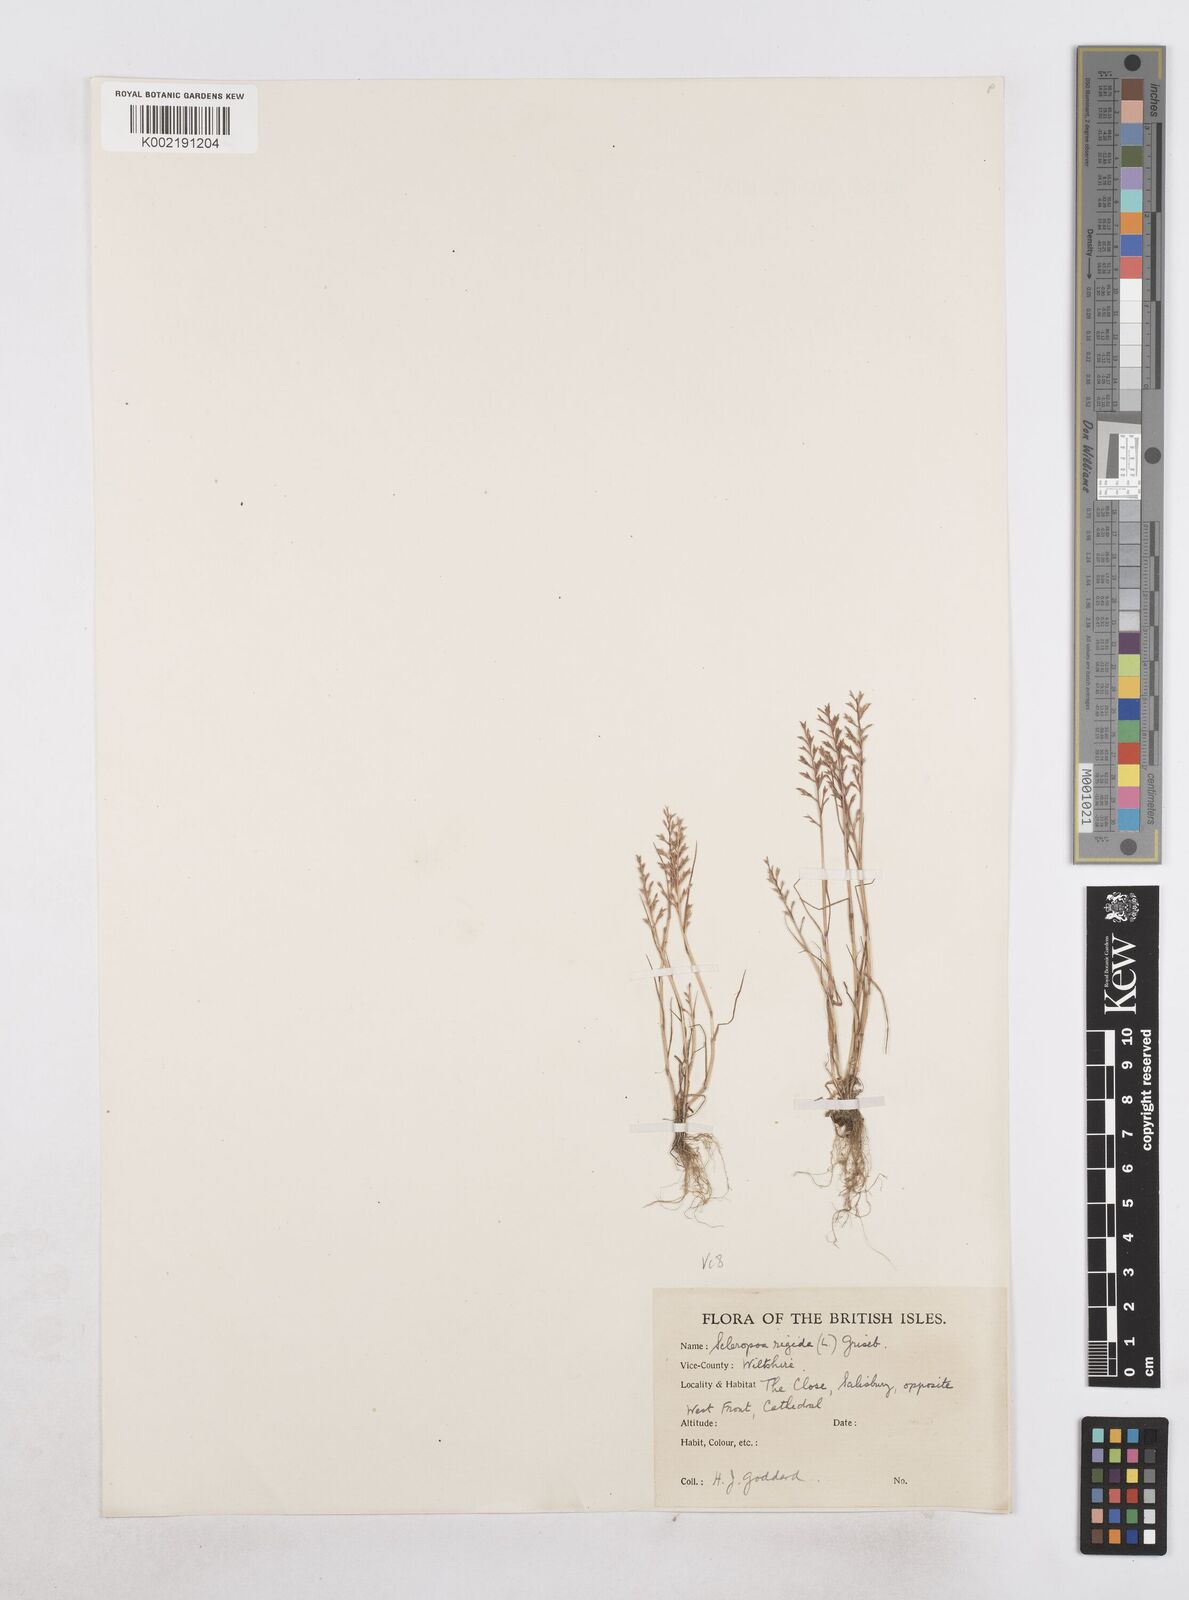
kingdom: Plantae
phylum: Tracheophyta
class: Liliopsida
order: Poales
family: Poaceae
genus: Catapodium
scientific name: Catapodium rigidum
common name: Fern-grass
